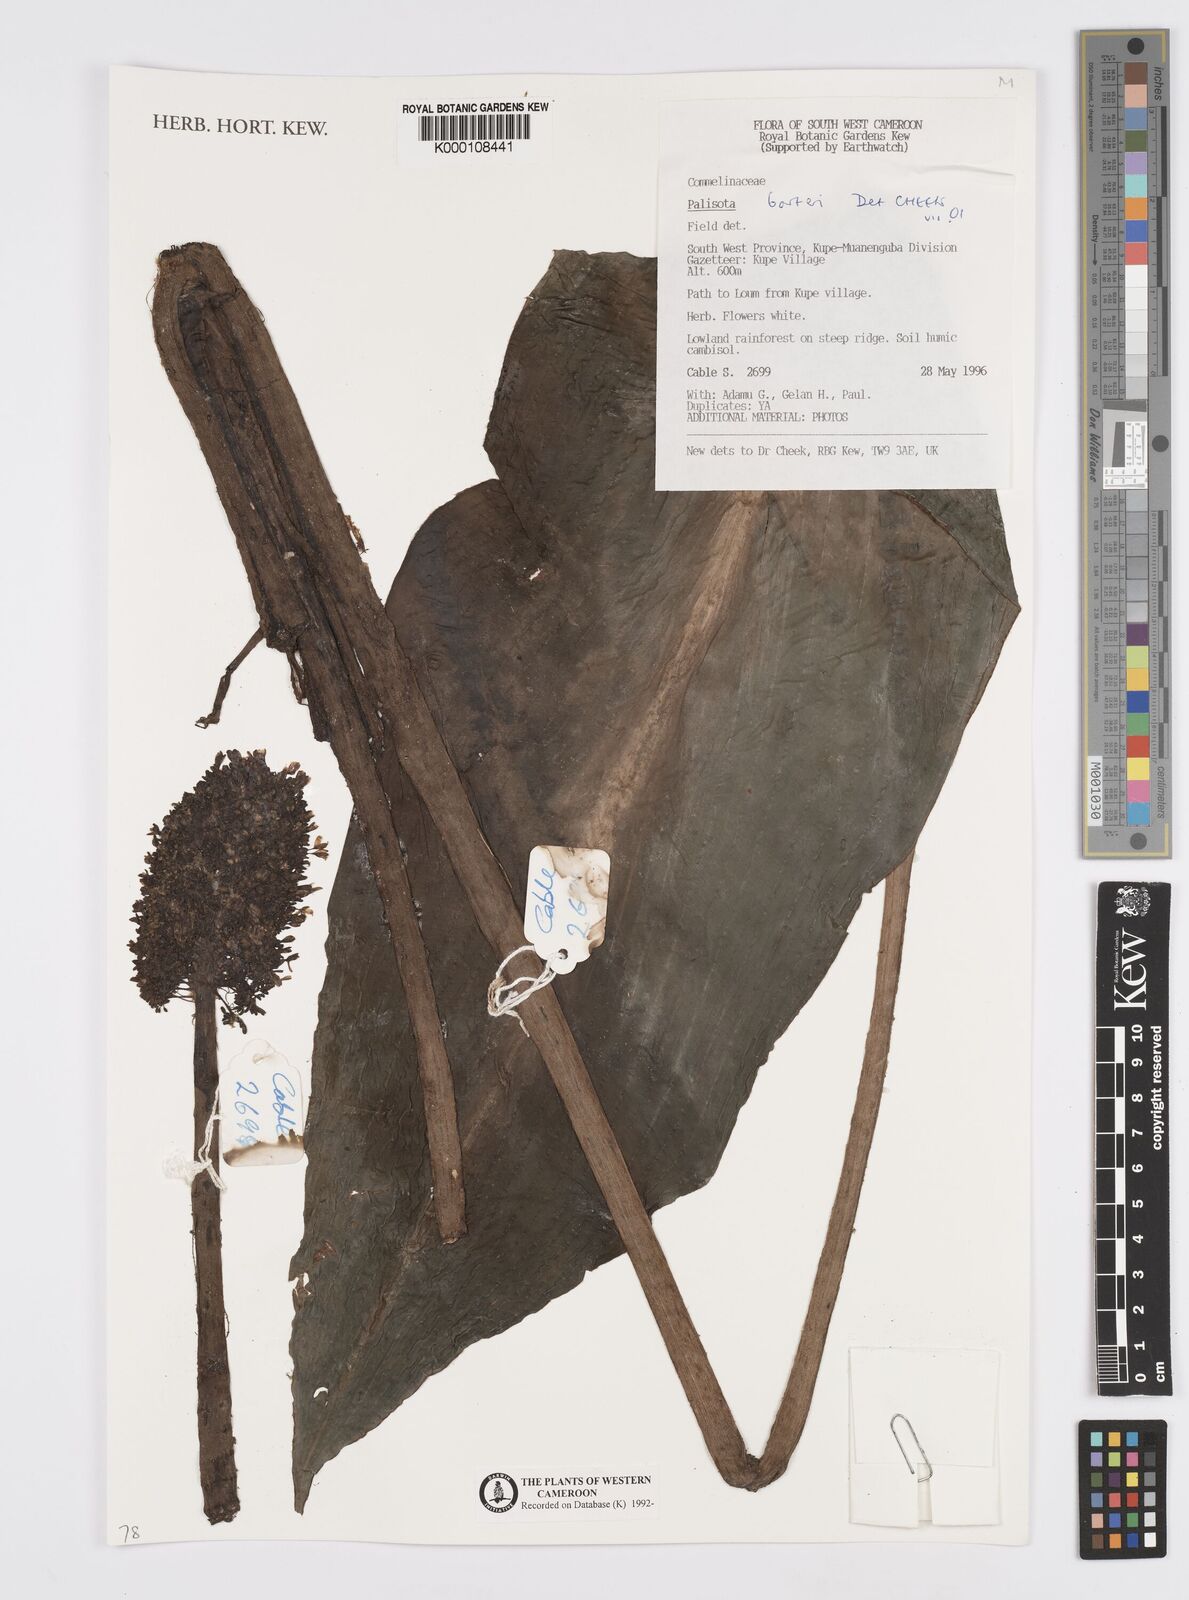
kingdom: Plantae
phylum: Tracheophyta
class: Liliopsida
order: Commelinales
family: Commelinaceae
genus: Palisota
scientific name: Palisota barteri
